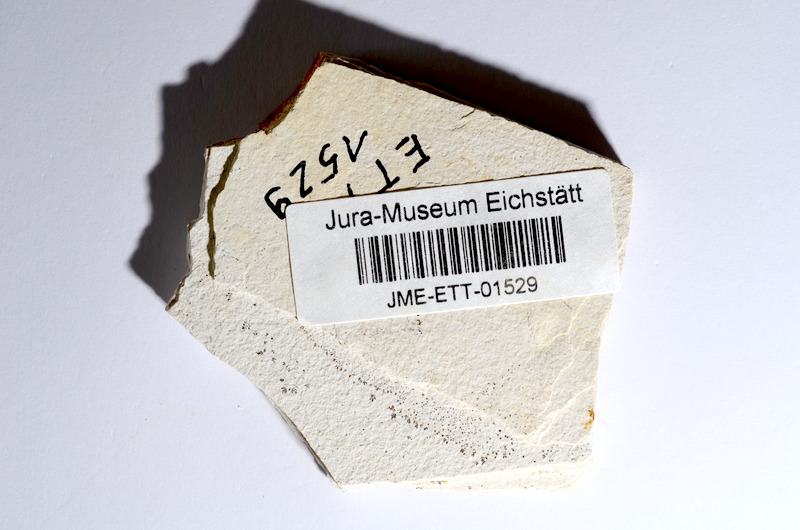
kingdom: Animalia
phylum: Chordata
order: Salmoniformes
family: Orthogonikleithridae
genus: Orthogonikleithrus
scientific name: Orthogonikleithrus hoelli
